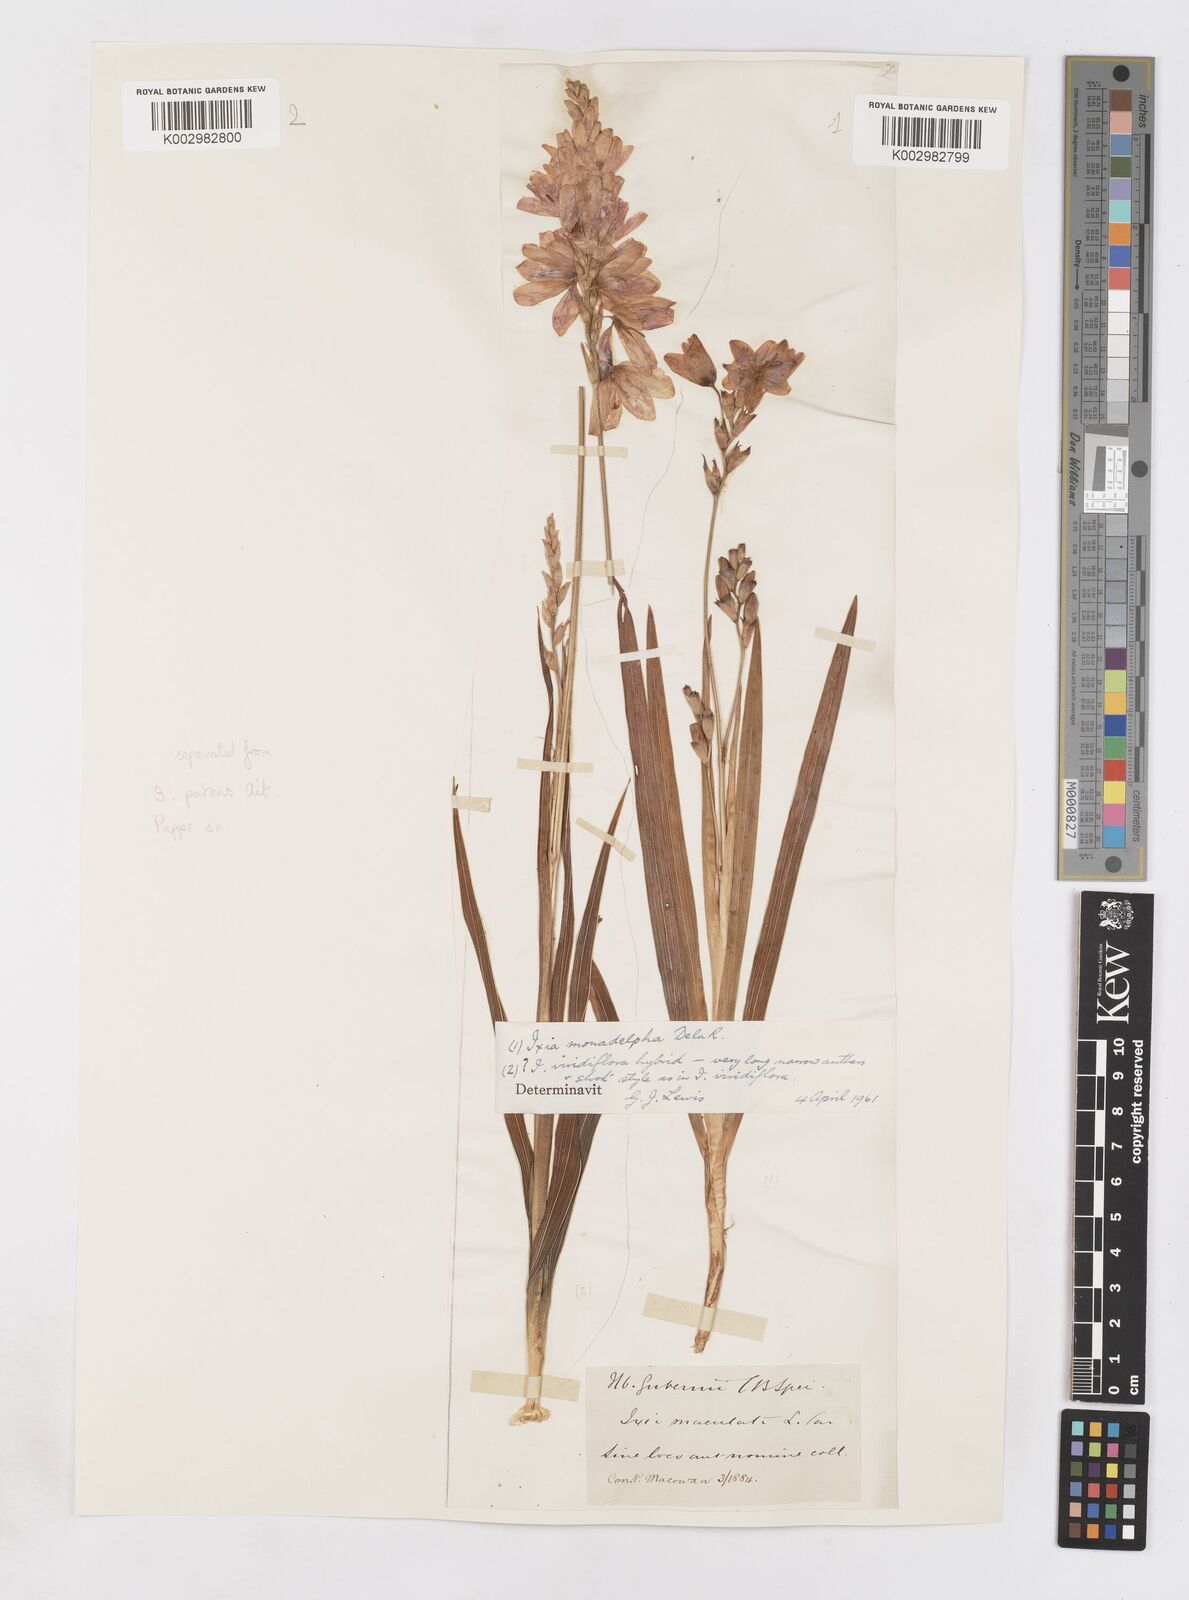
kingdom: Plantae
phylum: Tracheophyta
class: Liliopsida
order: Asparagales
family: Iridaceae
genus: Ixia
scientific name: Ixia monadelpha
